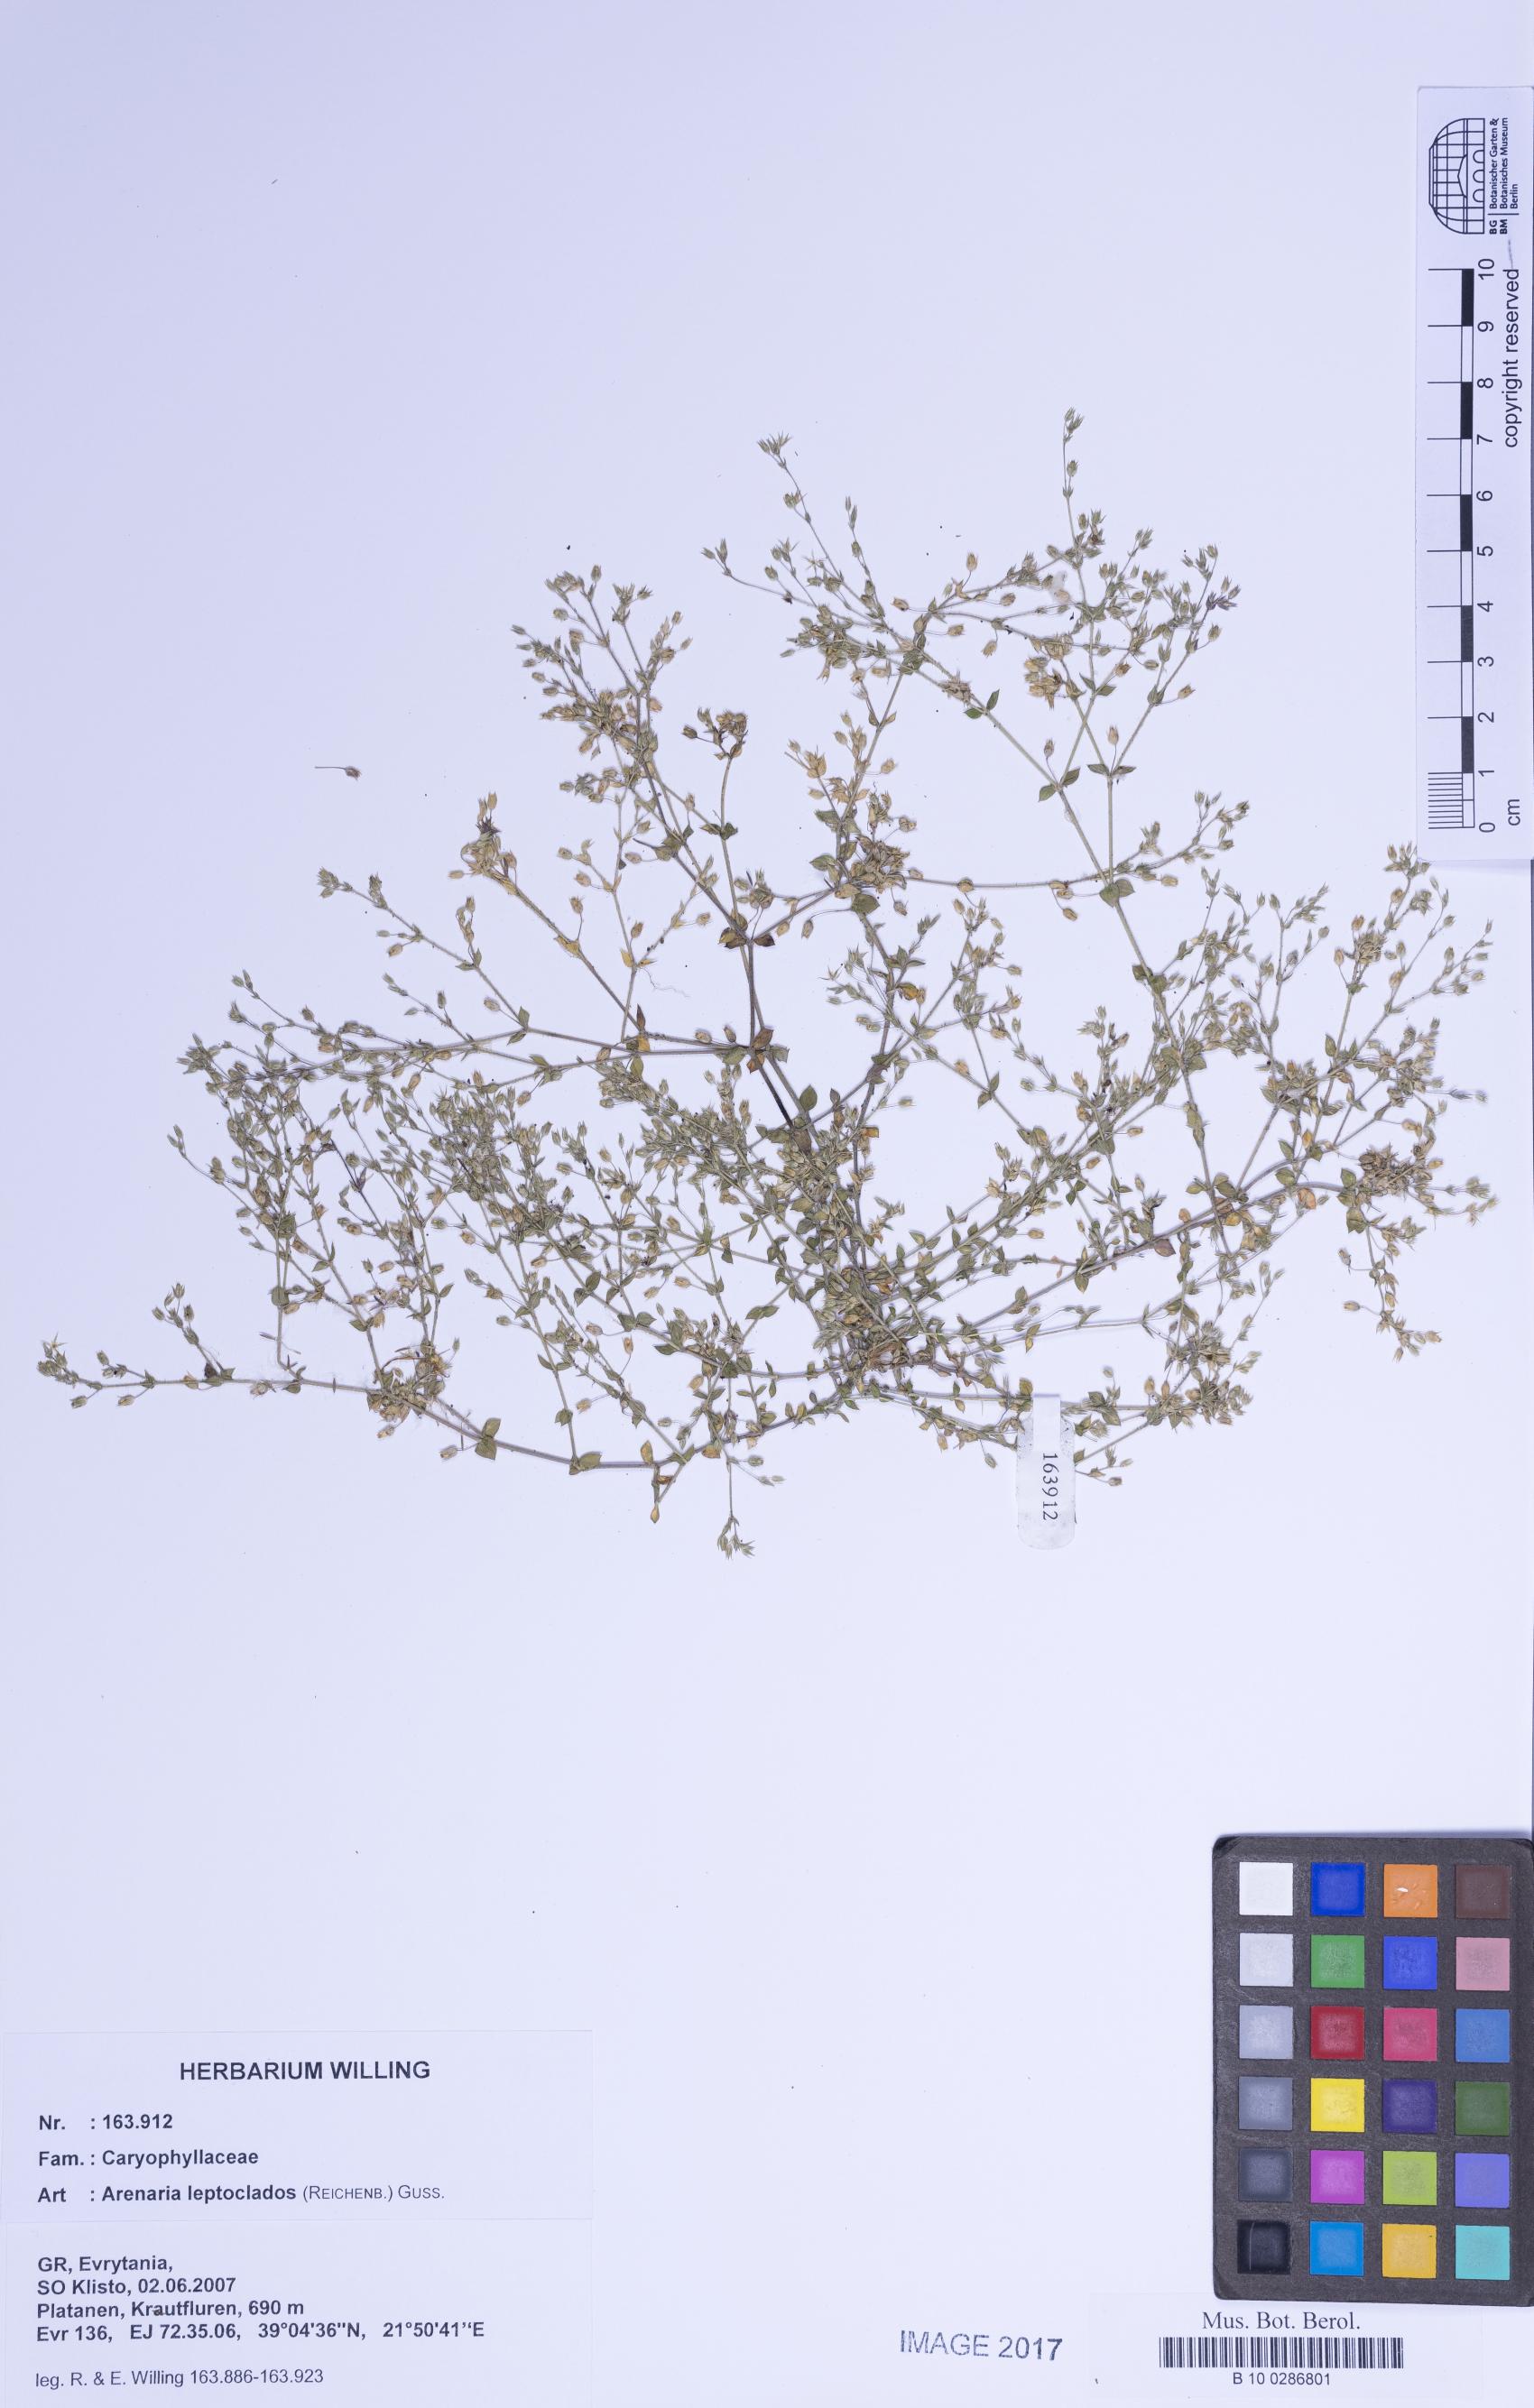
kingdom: Plantae
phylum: Tracheophyta
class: Magnoliopsida
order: Caryophyllales
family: Caryophyllaceae
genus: Arenaria
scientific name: Arenaria leptoclados
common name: Thyme-leaved sandwort
